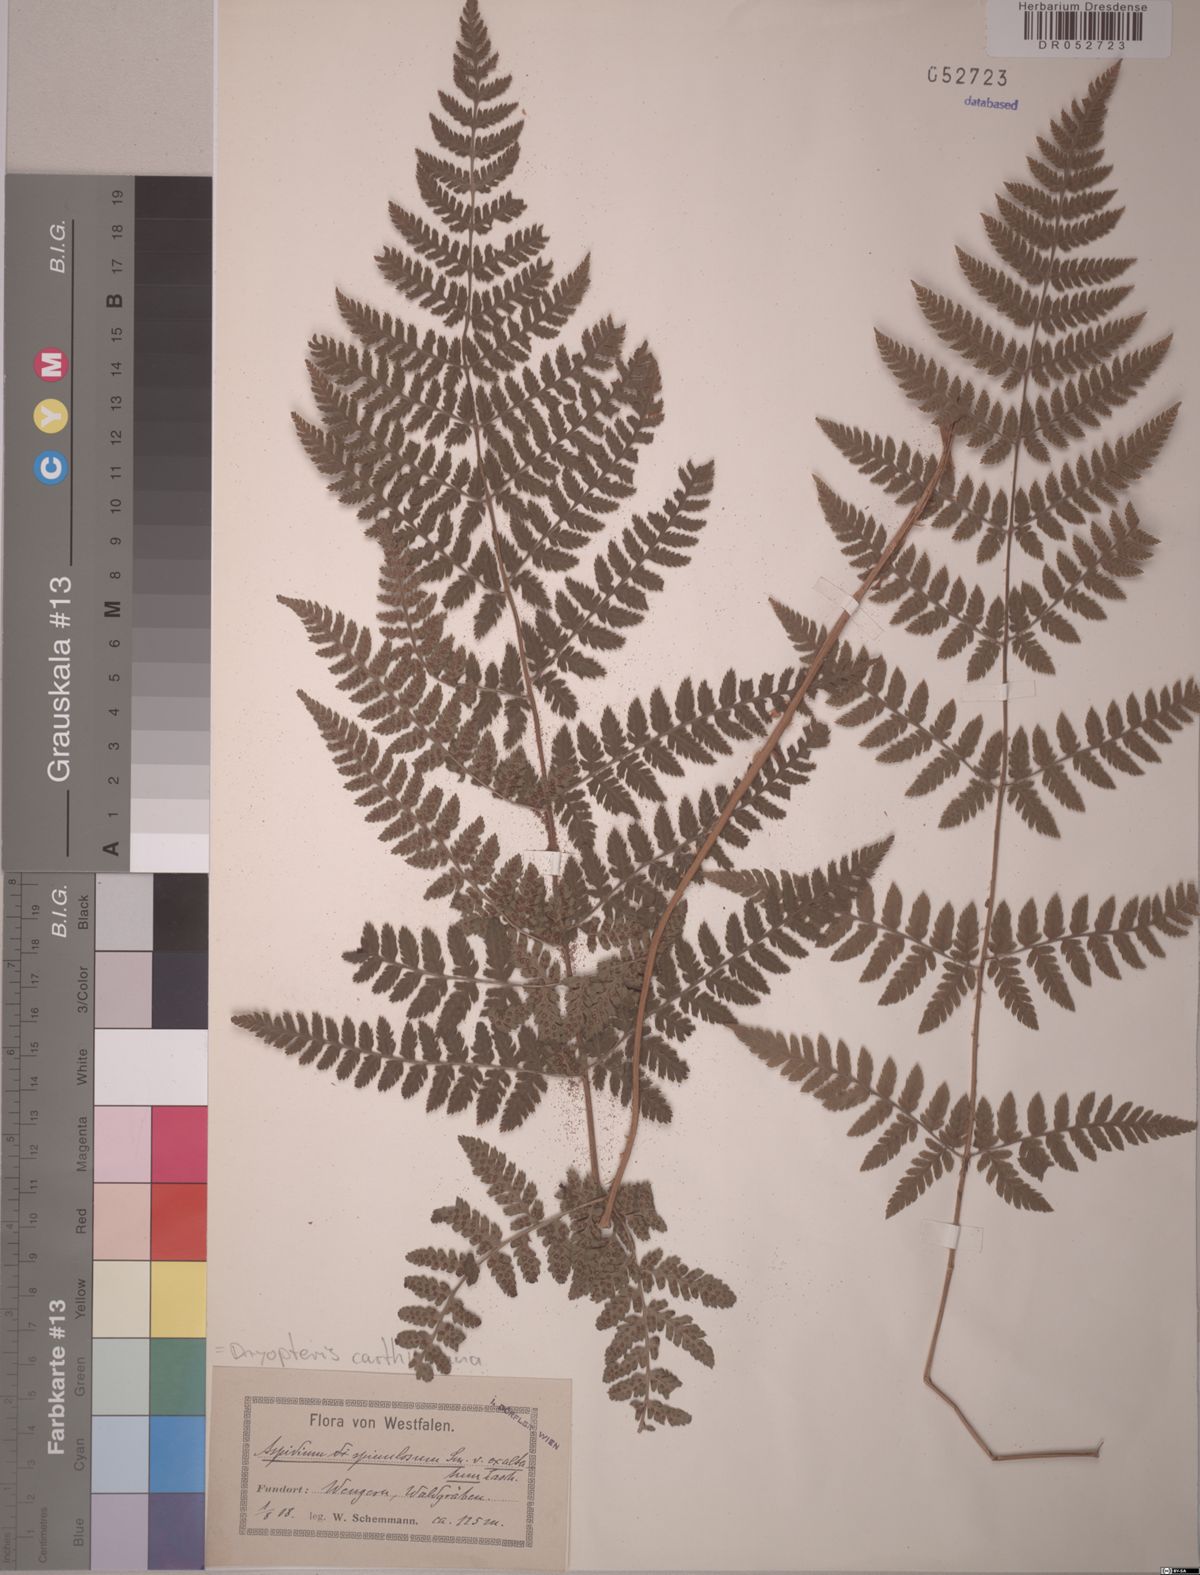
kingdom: Plantae
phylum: Tracheophyta
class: Polypodiopsida
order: Polypodiales
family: Dryopteridaceae
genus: Dryopteris
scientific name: Dryopteris carthusiana
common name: Narrow buckler-fern
